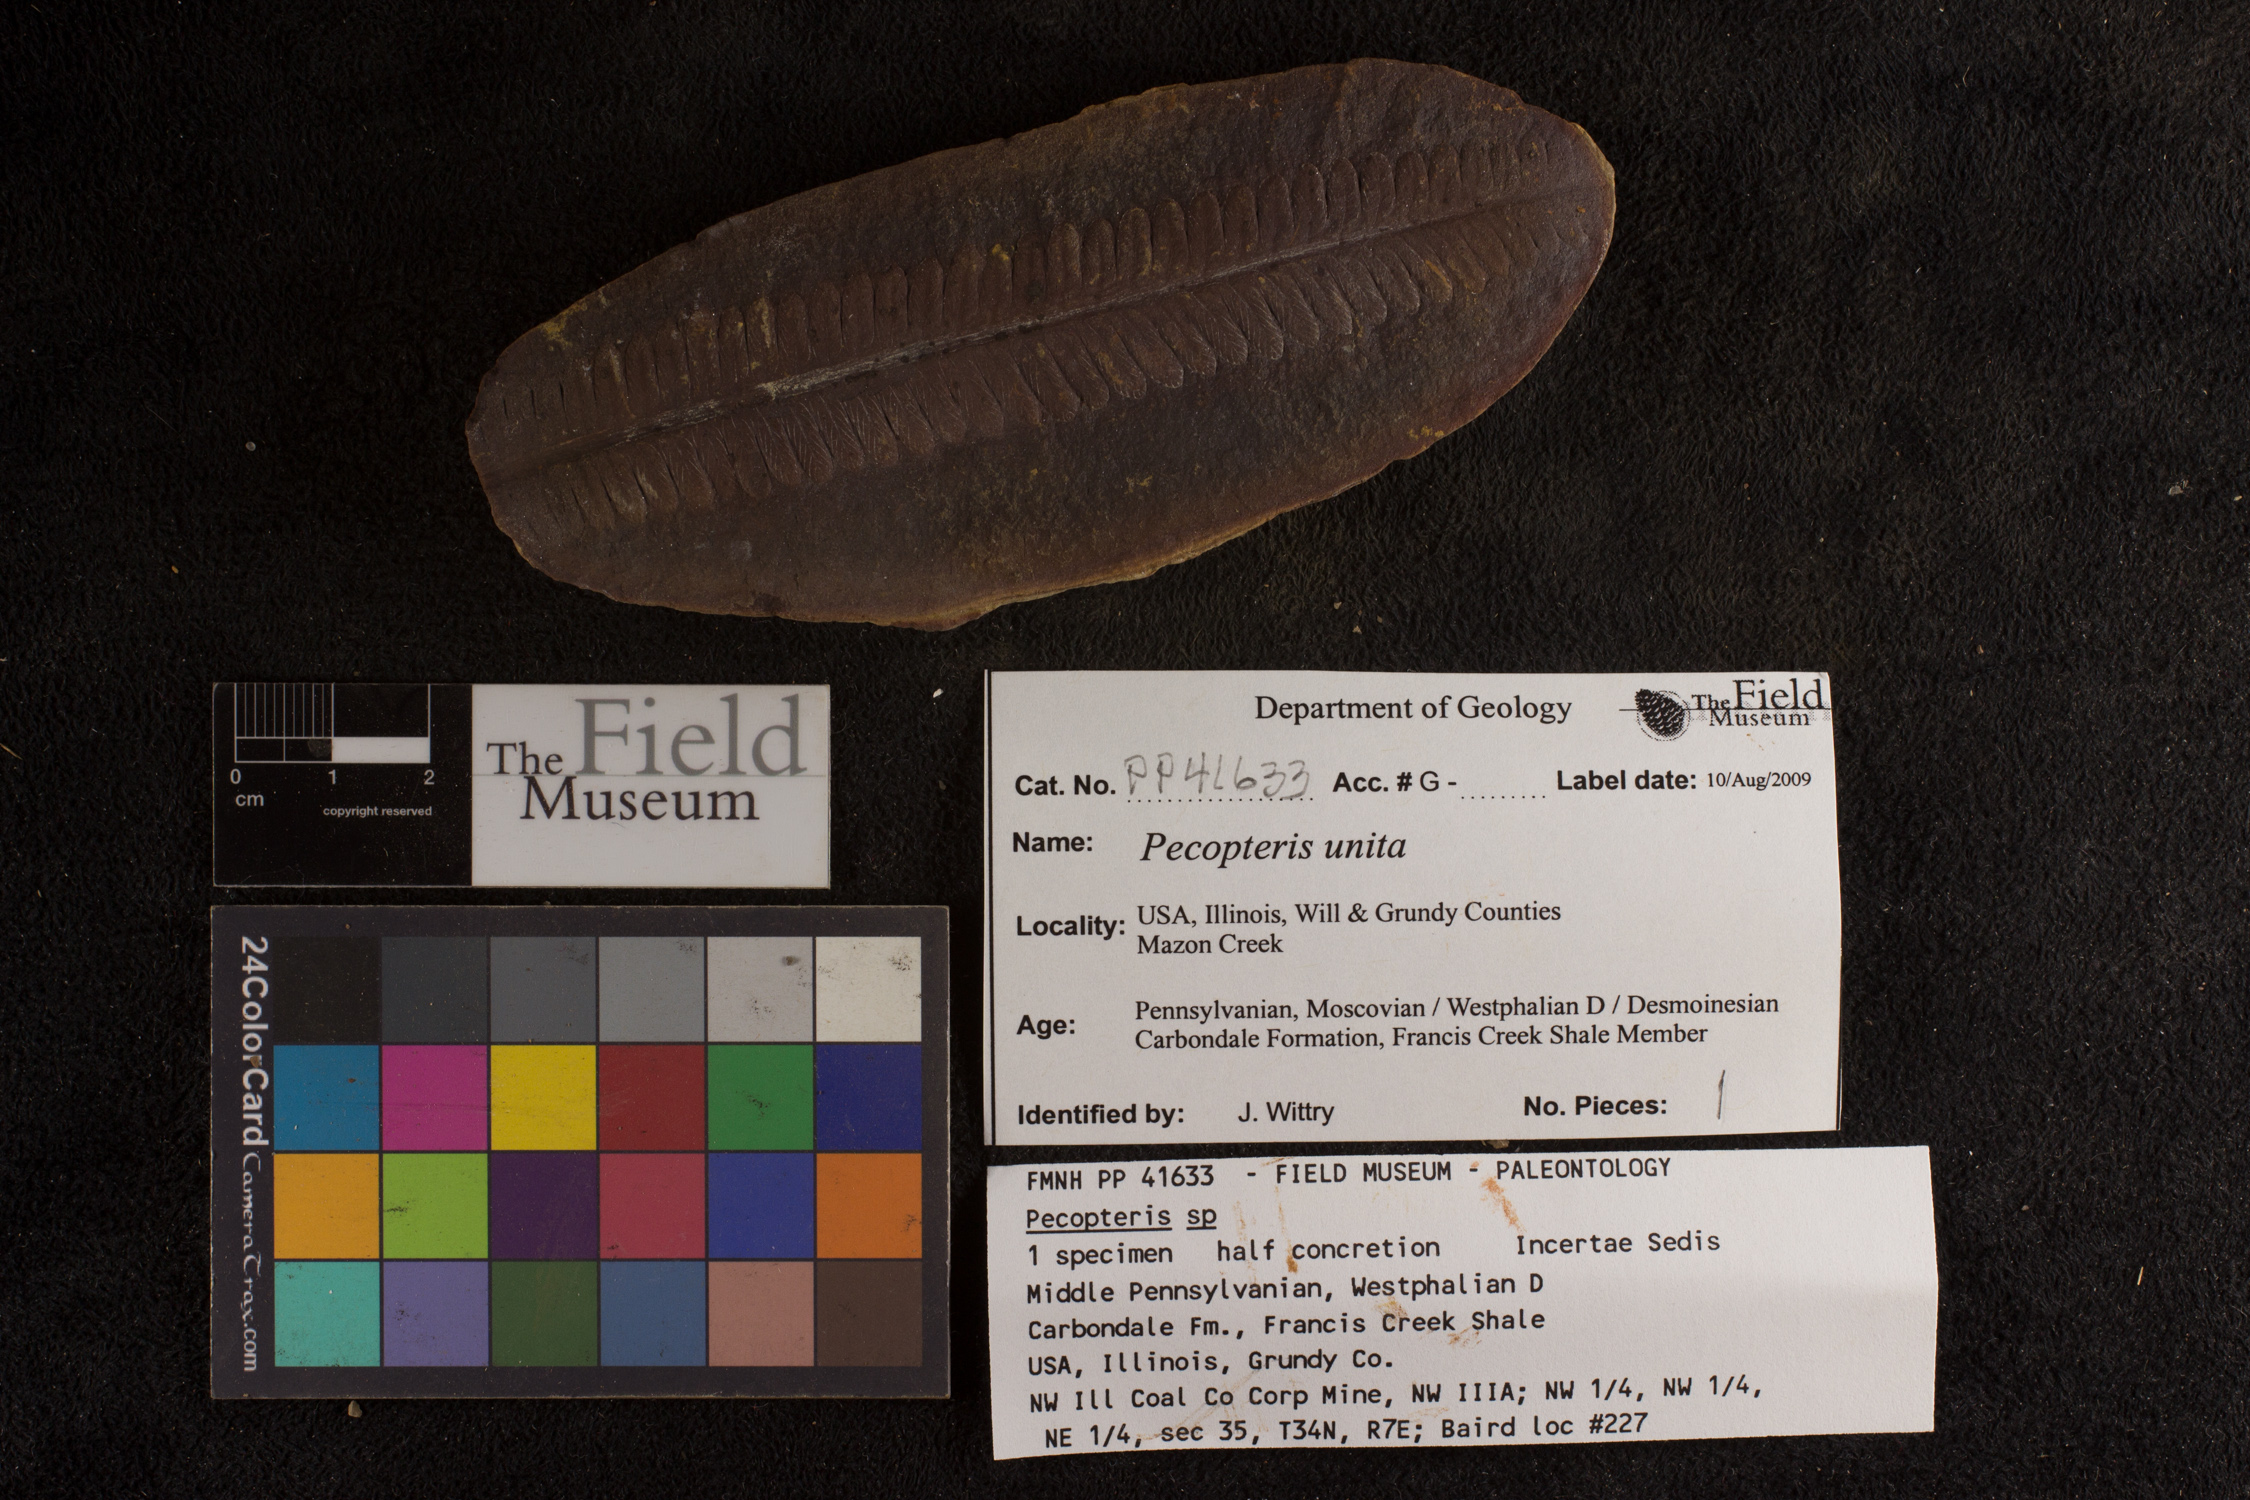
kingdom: Plantae
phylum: Tracheophyta
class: Polypodiopsida
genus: Diplazites
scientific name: Diplazites
